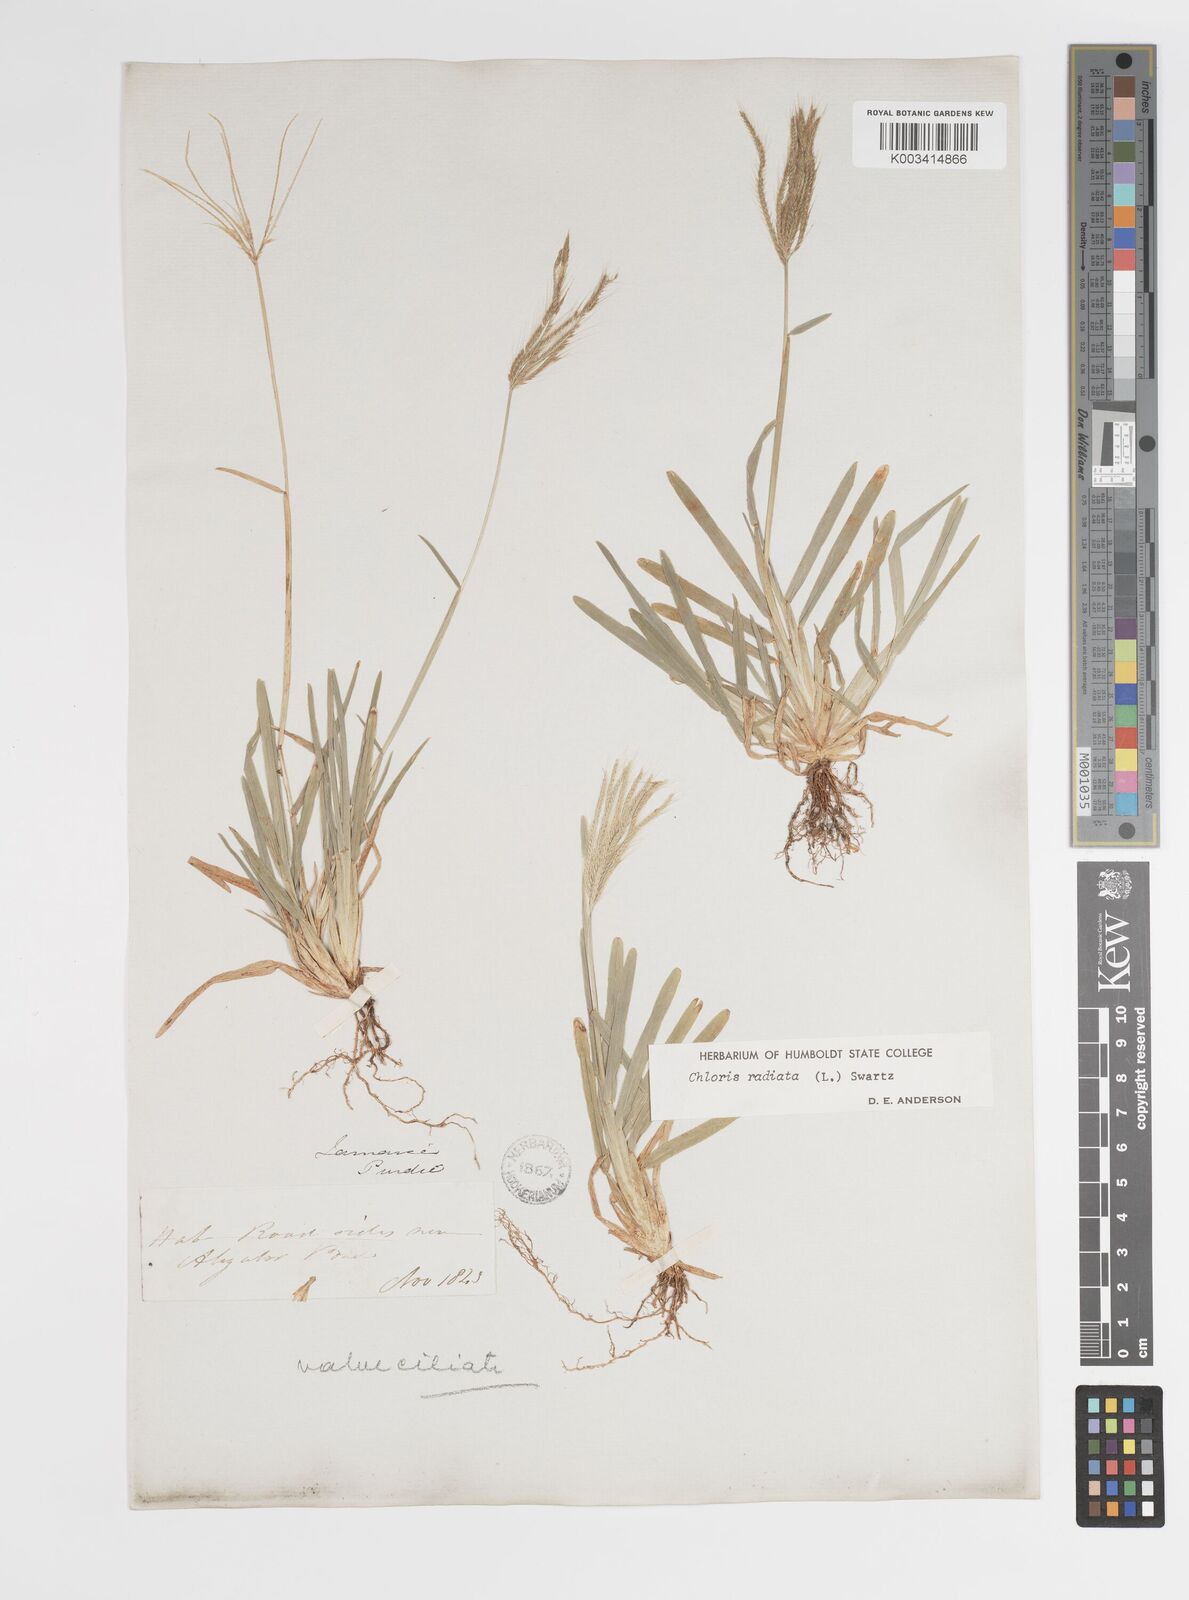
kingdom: Plantae
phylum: Tracheophyta
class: Liliopsida
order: Poales
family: Poaceae
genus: Chloris
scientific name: Chloris radiata
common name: Radiate fingergrass
